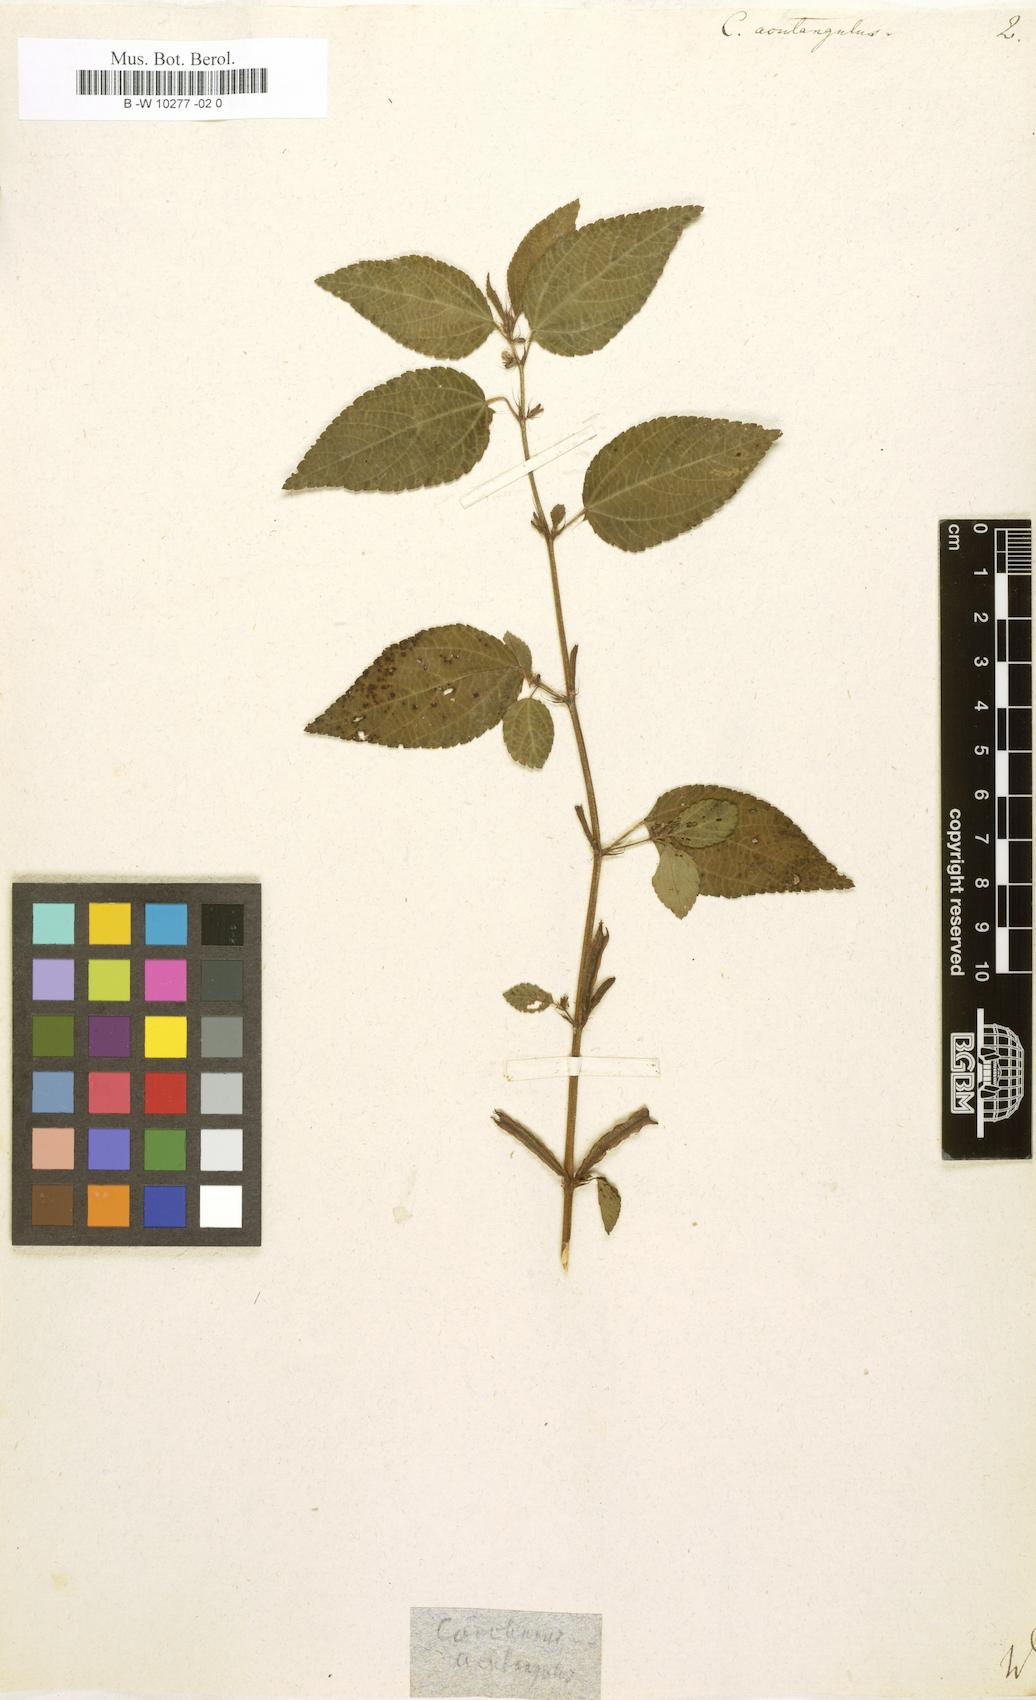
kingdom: Plantae
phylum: Tracheophyta
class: Magnoliopsida
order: Malvales
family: Malvaceae
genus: Corchorus
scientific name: Corchorus aestuans
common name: Jute
